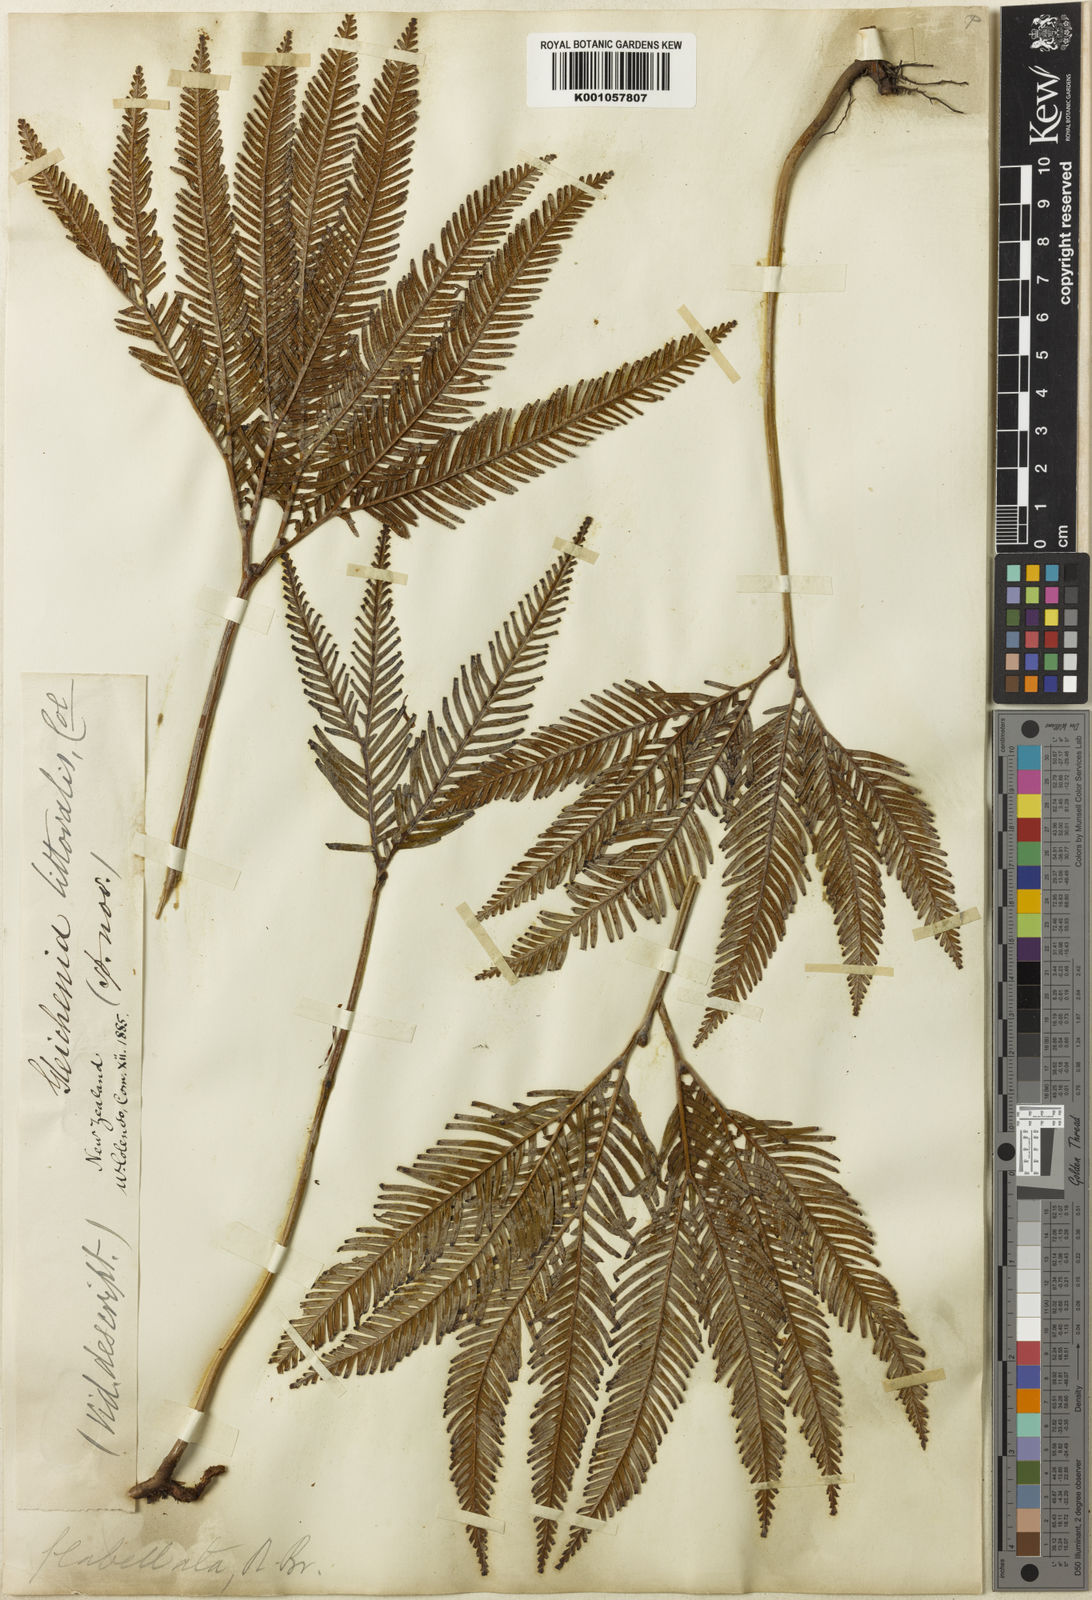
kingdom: Plantae
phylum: Tracheophyta
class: Polypodiopsida
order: Gleicheniales
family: Gleicheniaceae
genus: Sticherus
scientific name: Sticherus flabellatus
